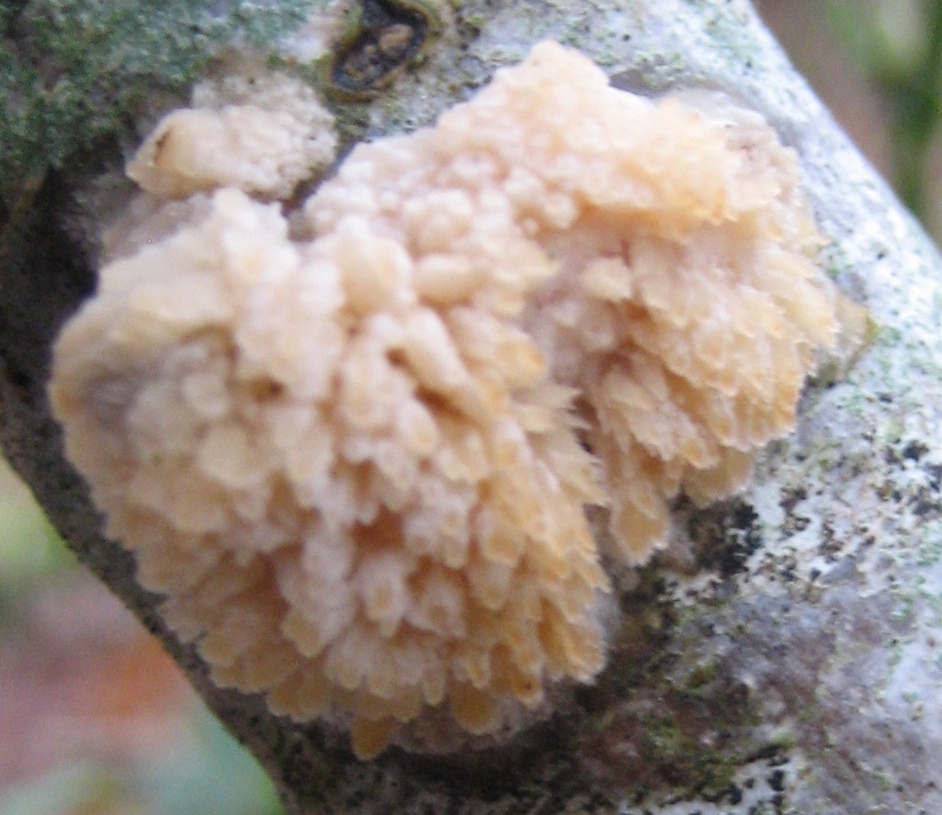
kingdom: Fungi
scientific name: Fungi
